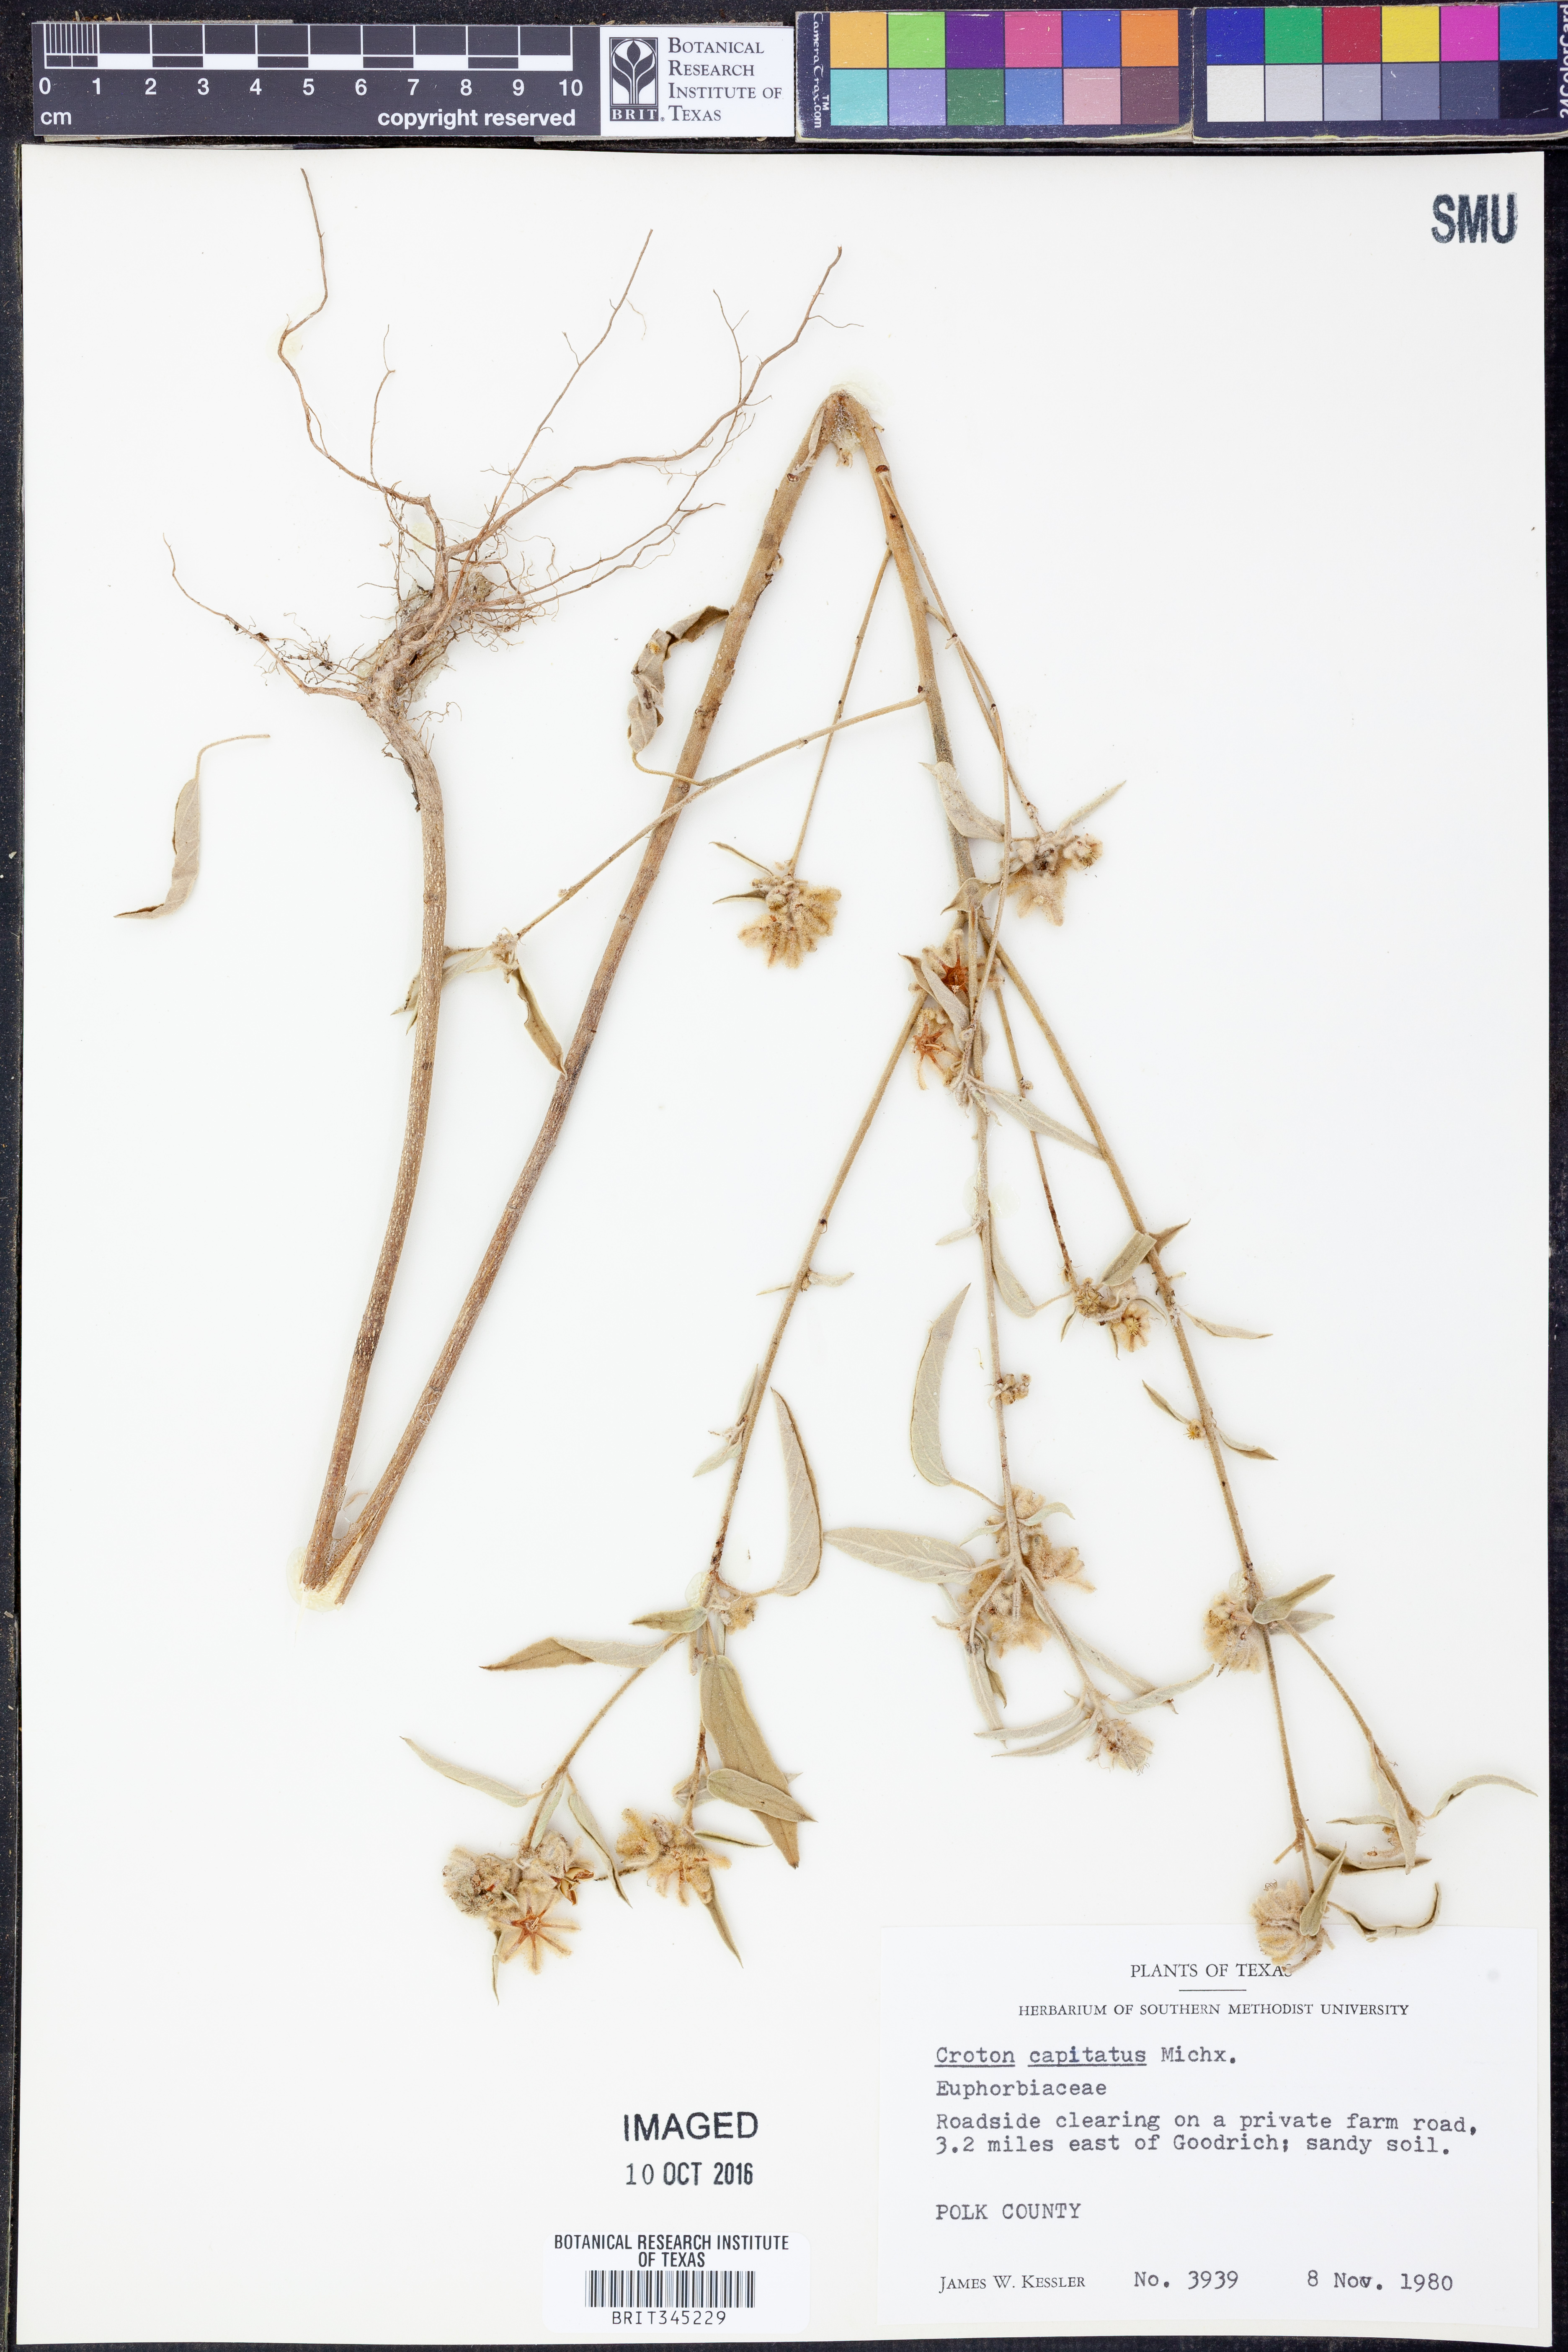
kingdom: Plantae
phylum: Tracheophyta
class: Magnoliopsida
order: Malpighiales
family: Euphorbiaceae
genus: Croton
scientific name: Croton capitatus
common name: Woolly croton
